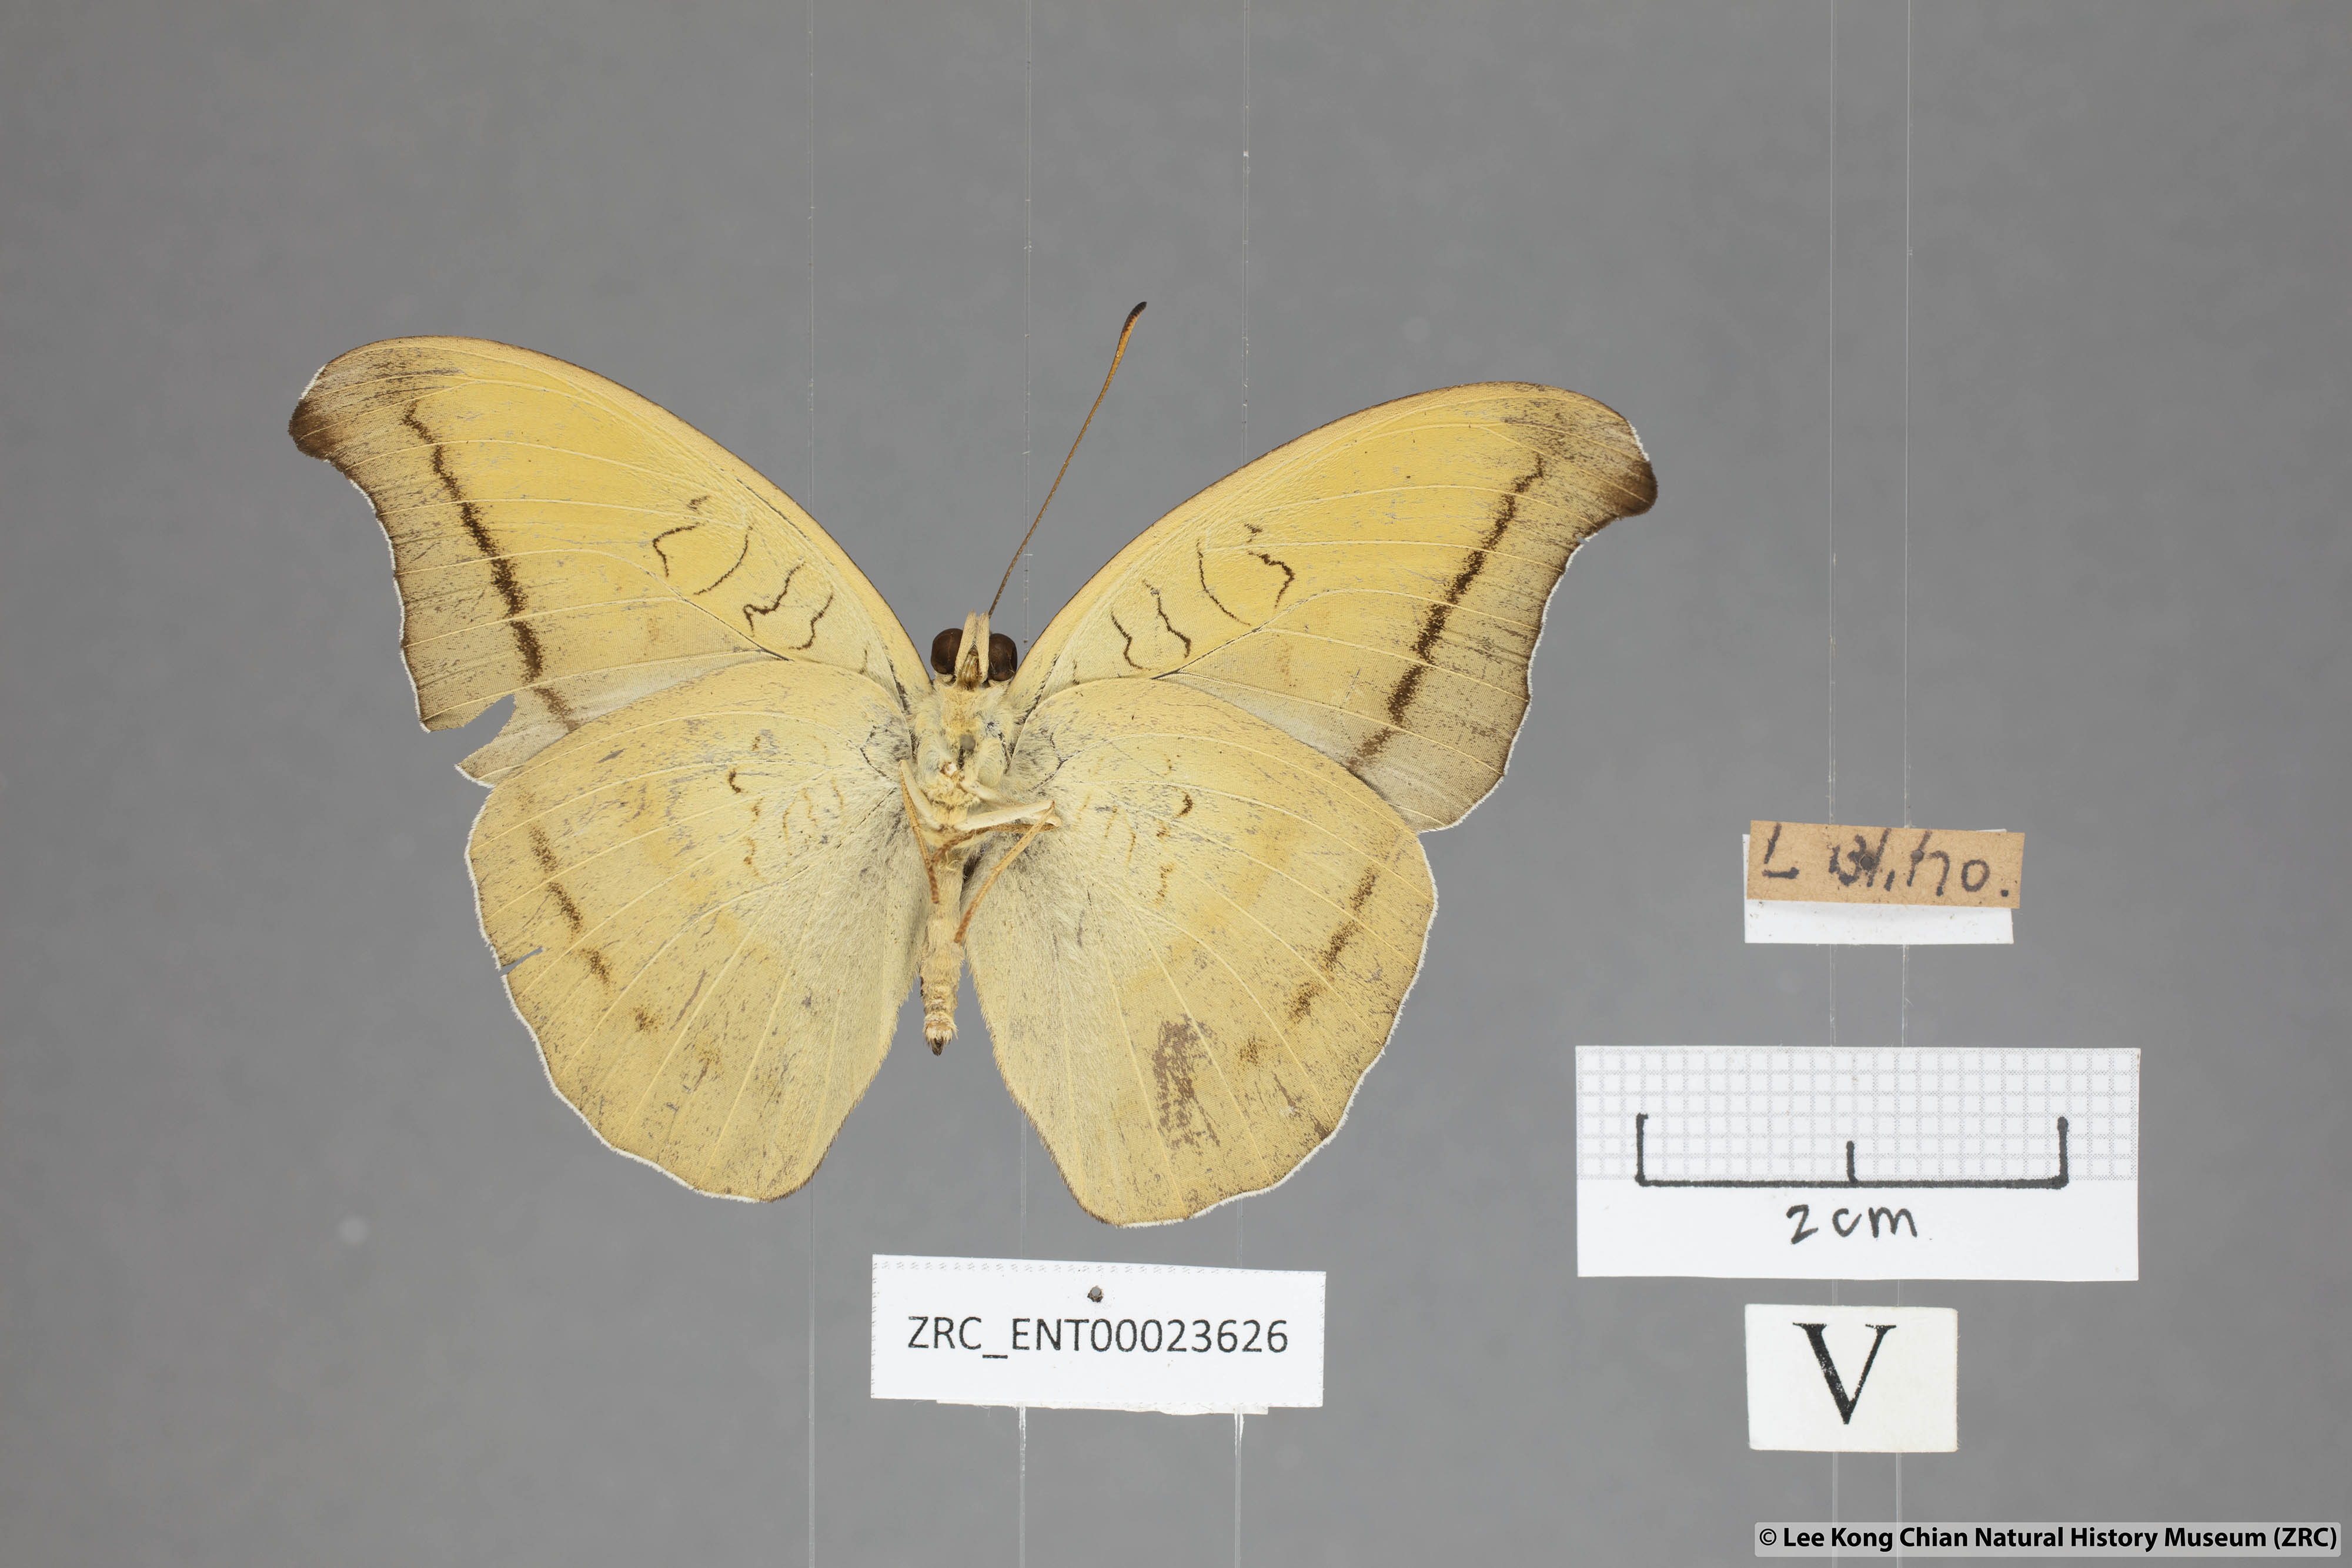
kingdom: Animalia
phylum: Arthropoda
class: Insecta
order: Lepidoptera
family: Nymphalidae
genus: Tanaecia
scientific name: Tanaecia cocytus
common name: Lavender count
